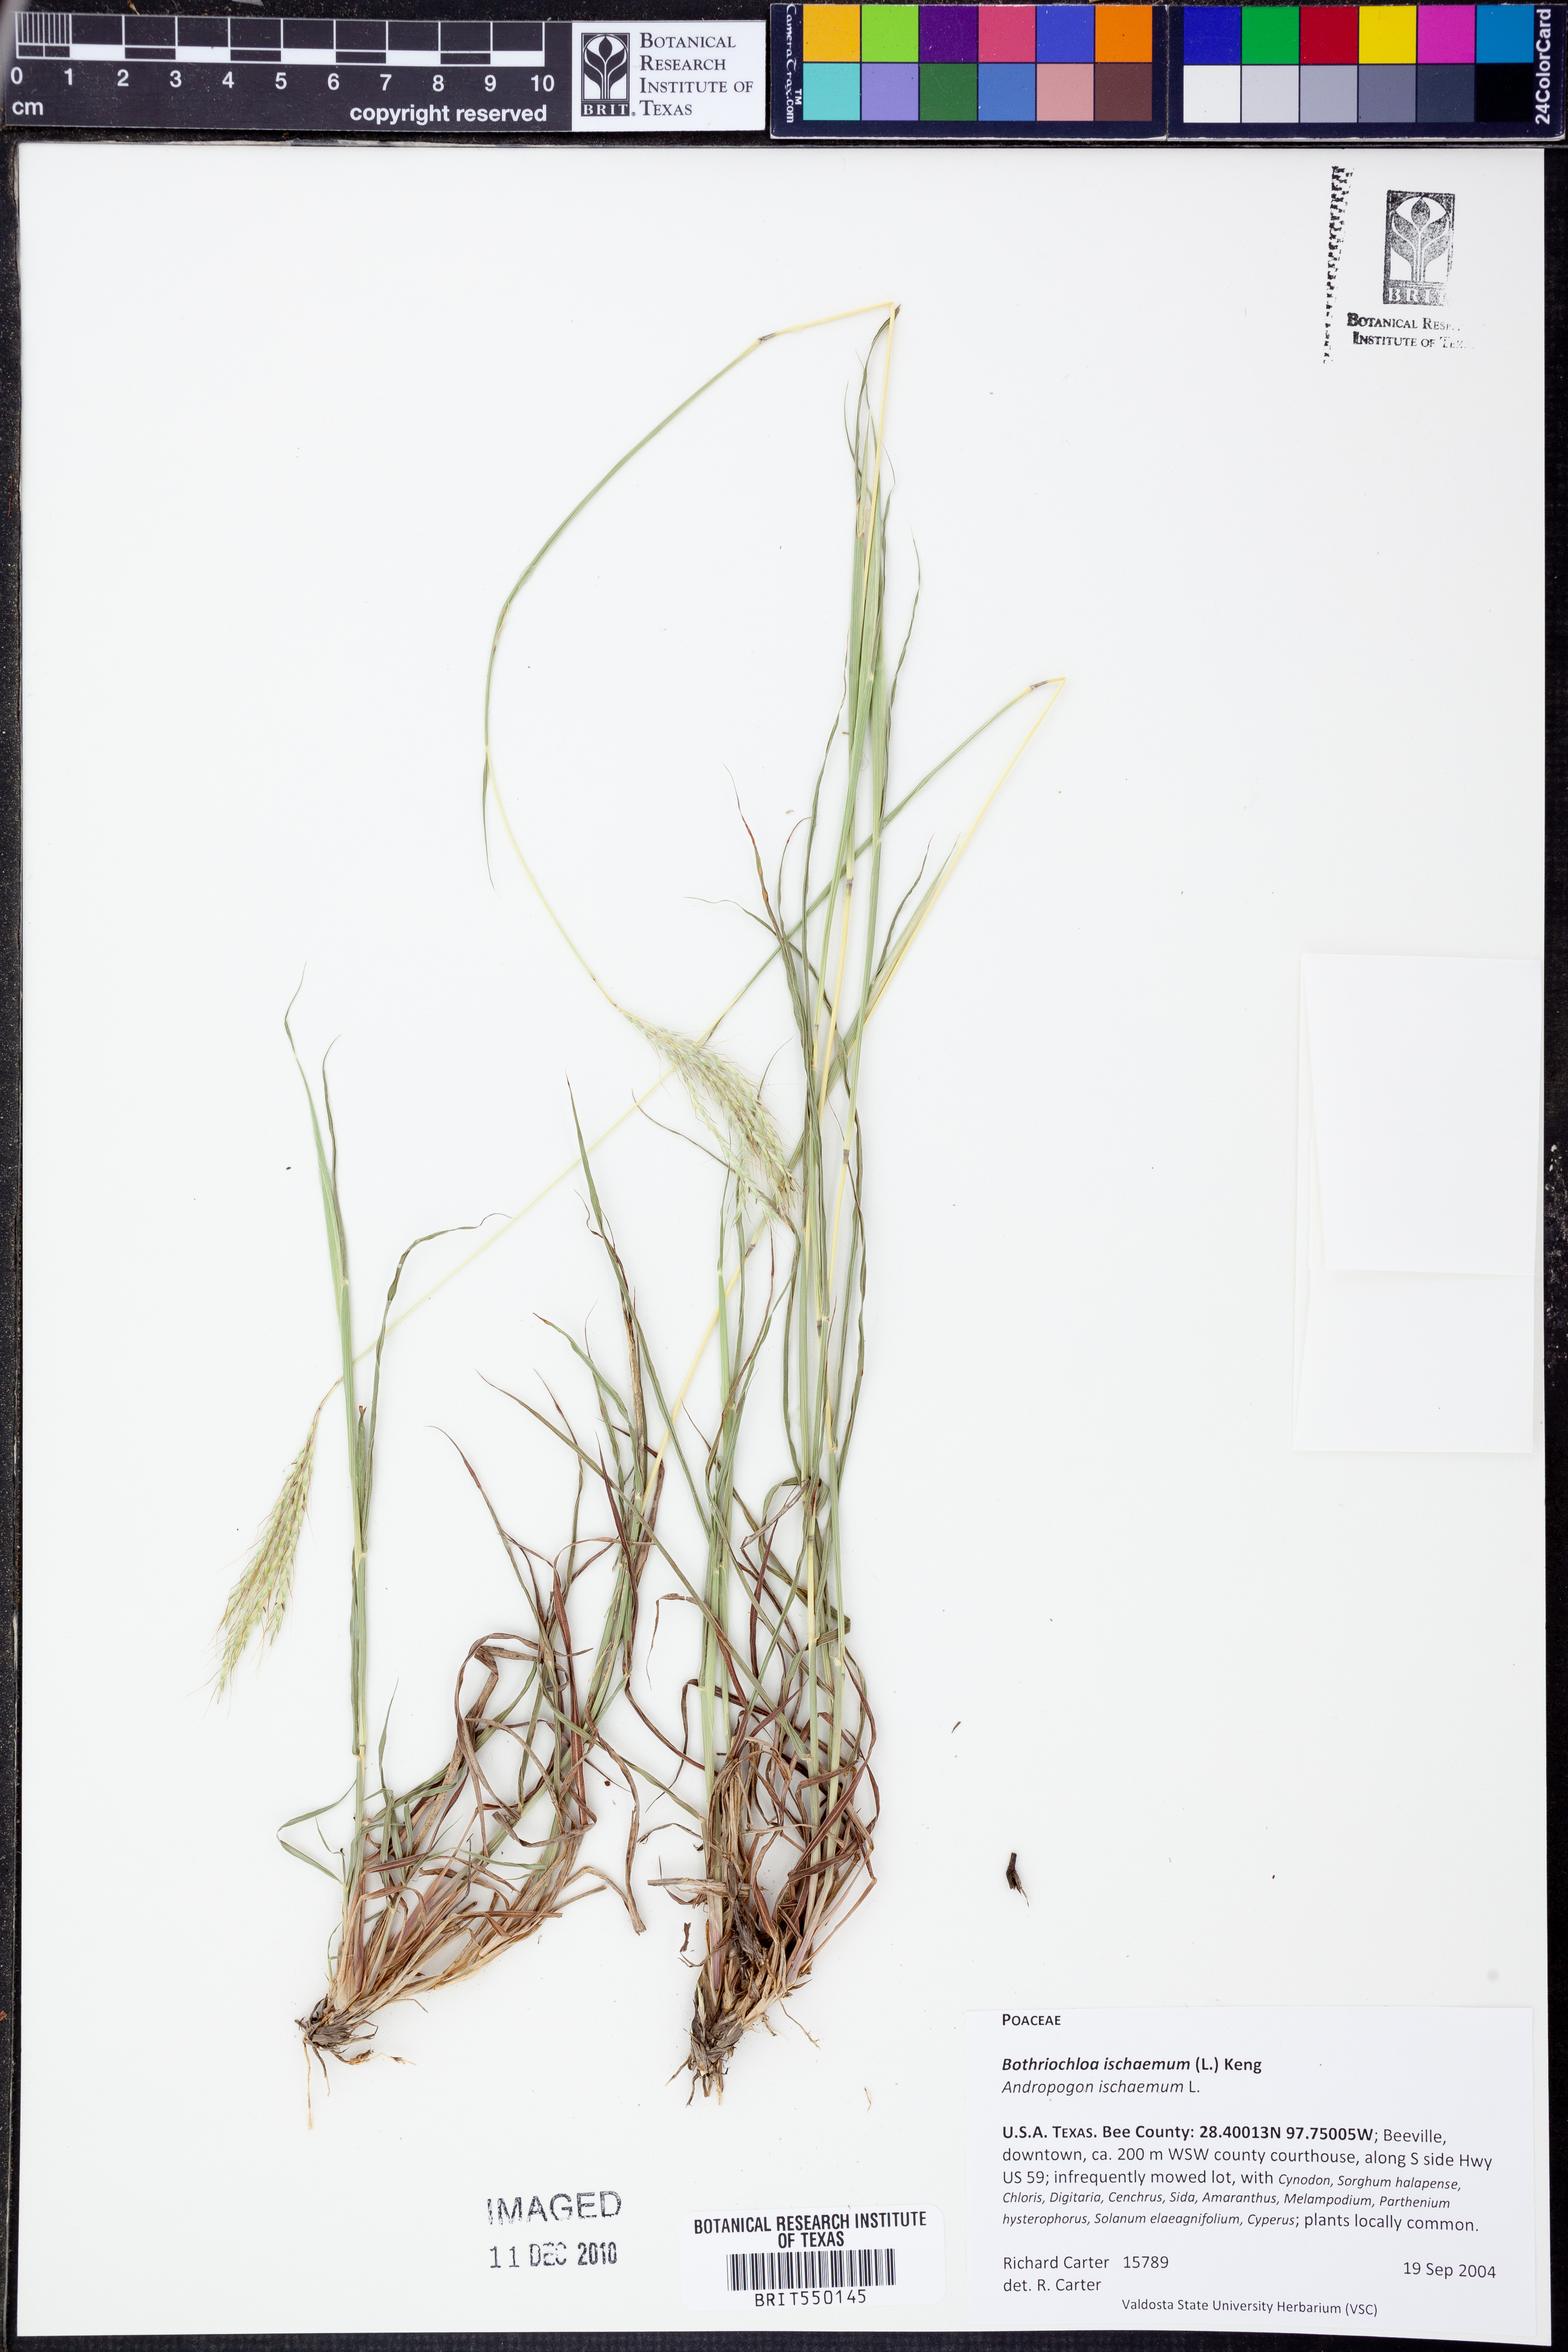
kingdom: Plantae
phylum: Tracheophyta
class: Liliopsida
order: Poales
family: Poaceae
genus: Bothriochloa
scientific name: Bothriochloa ischaemum
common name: Yellow bluestem
